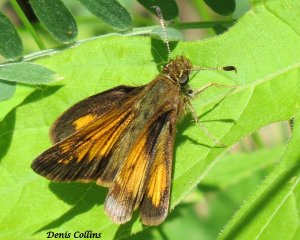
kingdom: Animalia
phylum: Arthropoda
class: Insecta
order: Lepidoptera
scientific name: Lepidoptera
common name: Butterflies
